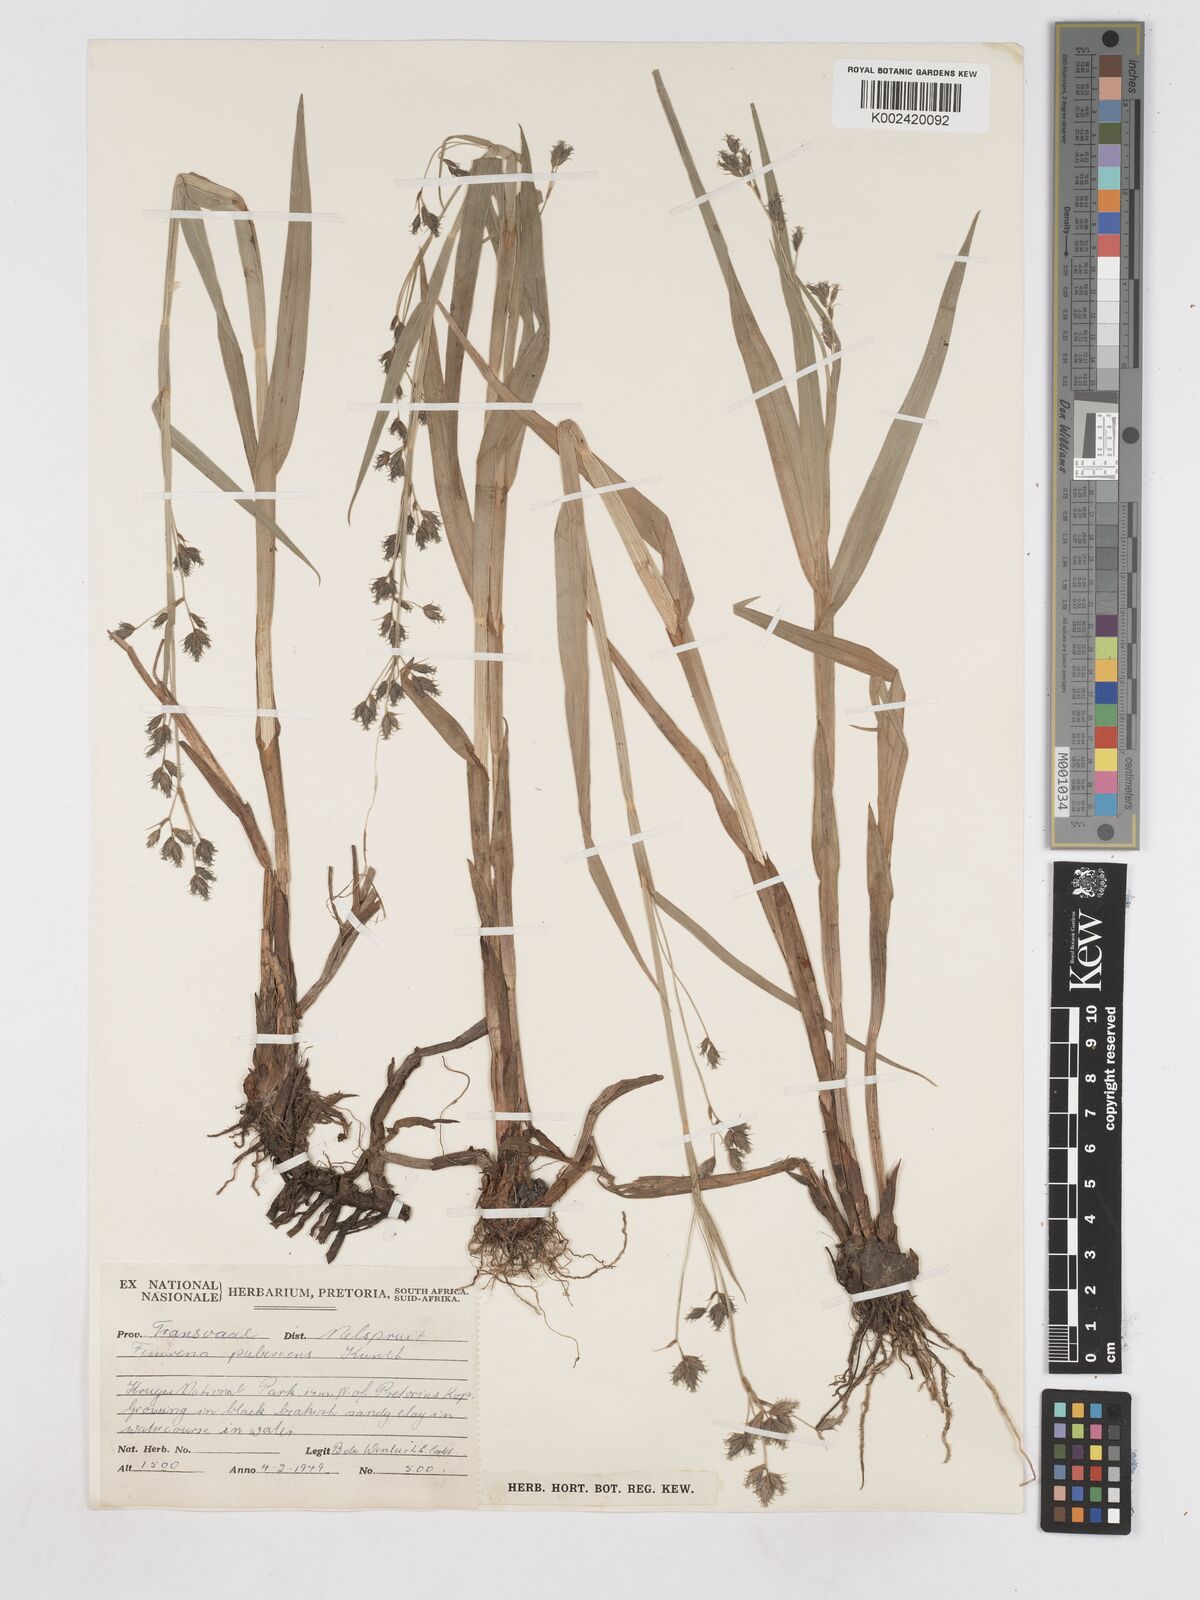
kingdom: Plantae
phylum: Tracheophyta
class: Liliopsida
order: Poales
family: Cyperaceae
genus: Fuirena
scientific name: Fuirena pubescens
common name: Hairy sedge
